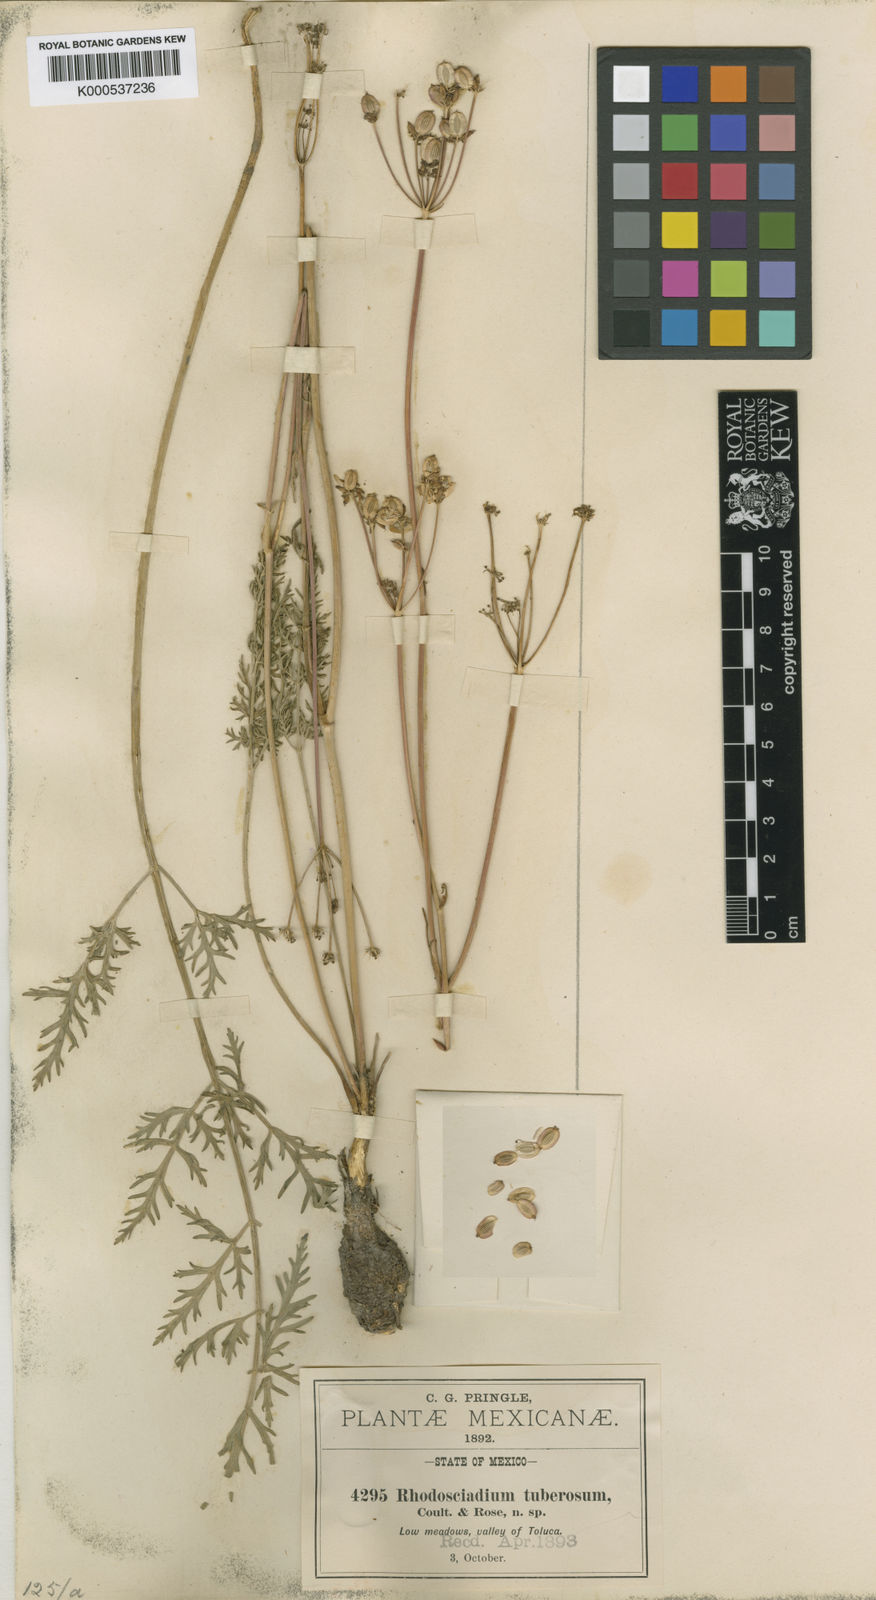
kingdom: Plantae
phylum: Tracheophyta
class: Magnoliopsida
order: Apiales
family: Apiaceae
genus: Rhodosciadium
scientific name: Rhodosciadium tuberosum
